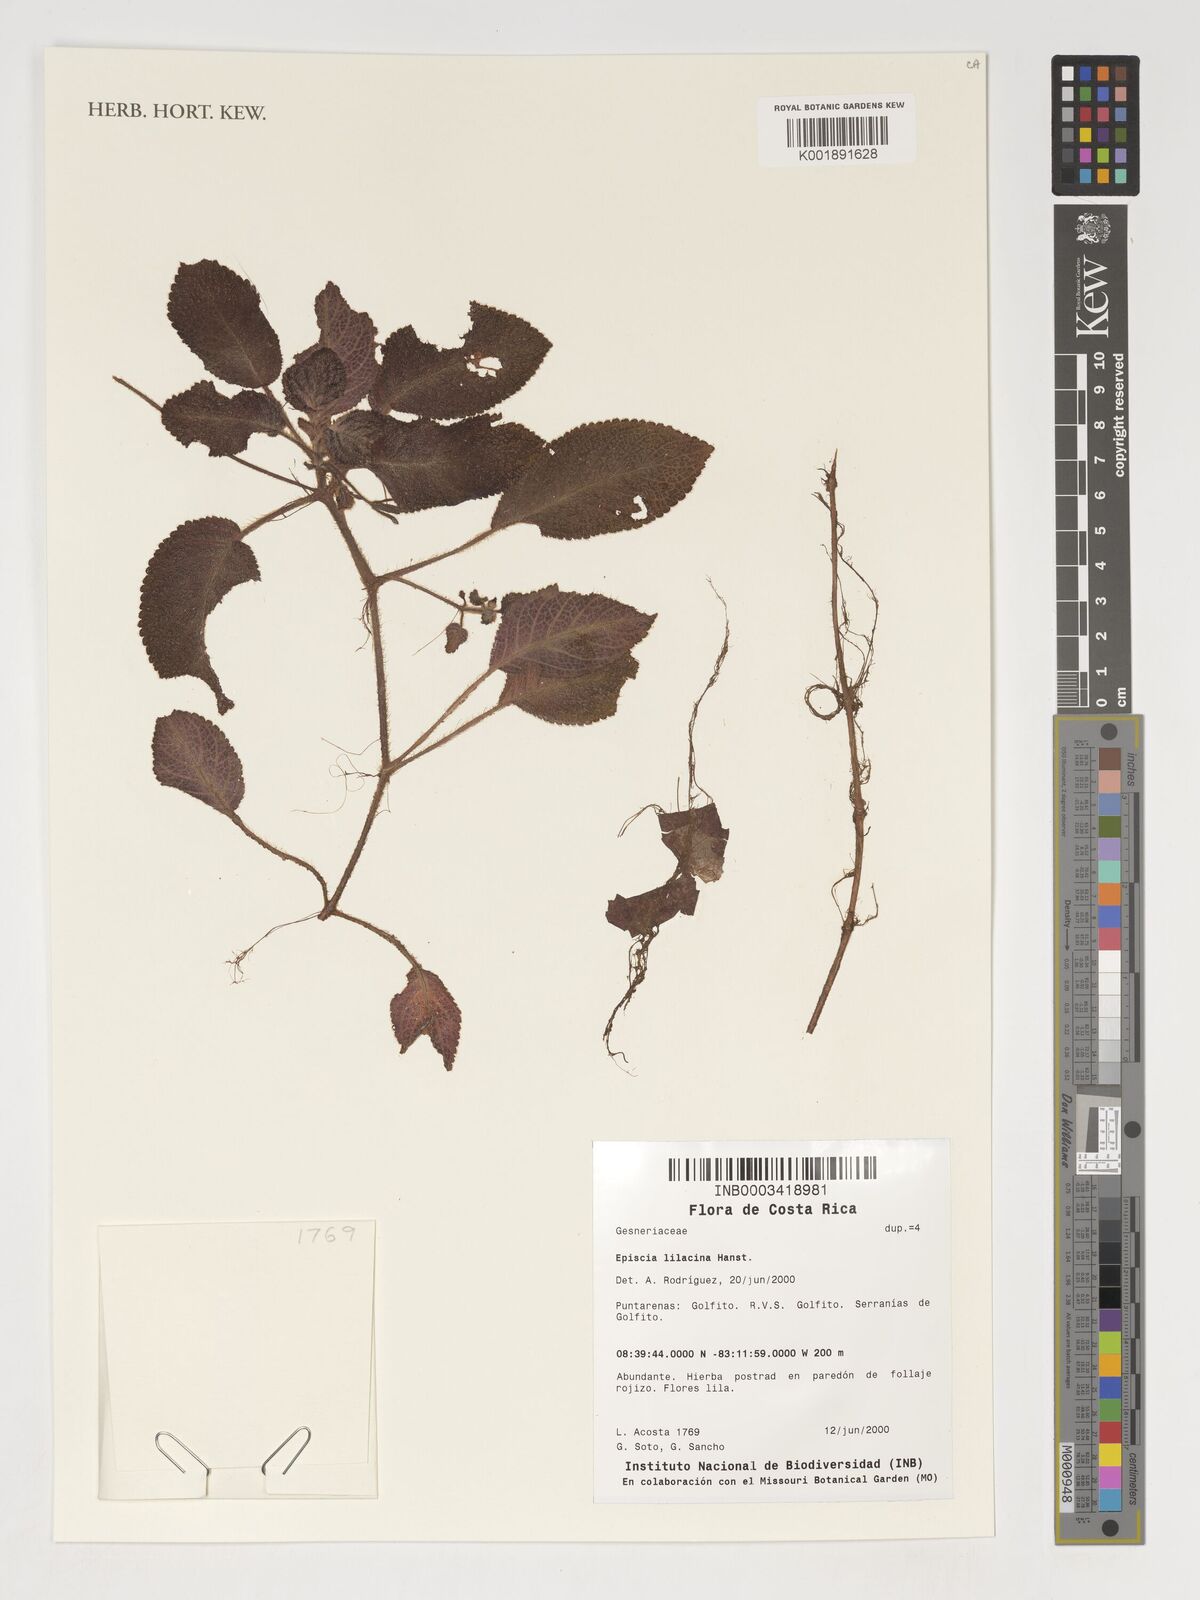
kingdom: Plantae
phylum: Tracheophyta
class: Magnoliopsida
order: Lamiales
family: Gesneriaceae
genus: Episcia
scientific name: Episcia lilacina
